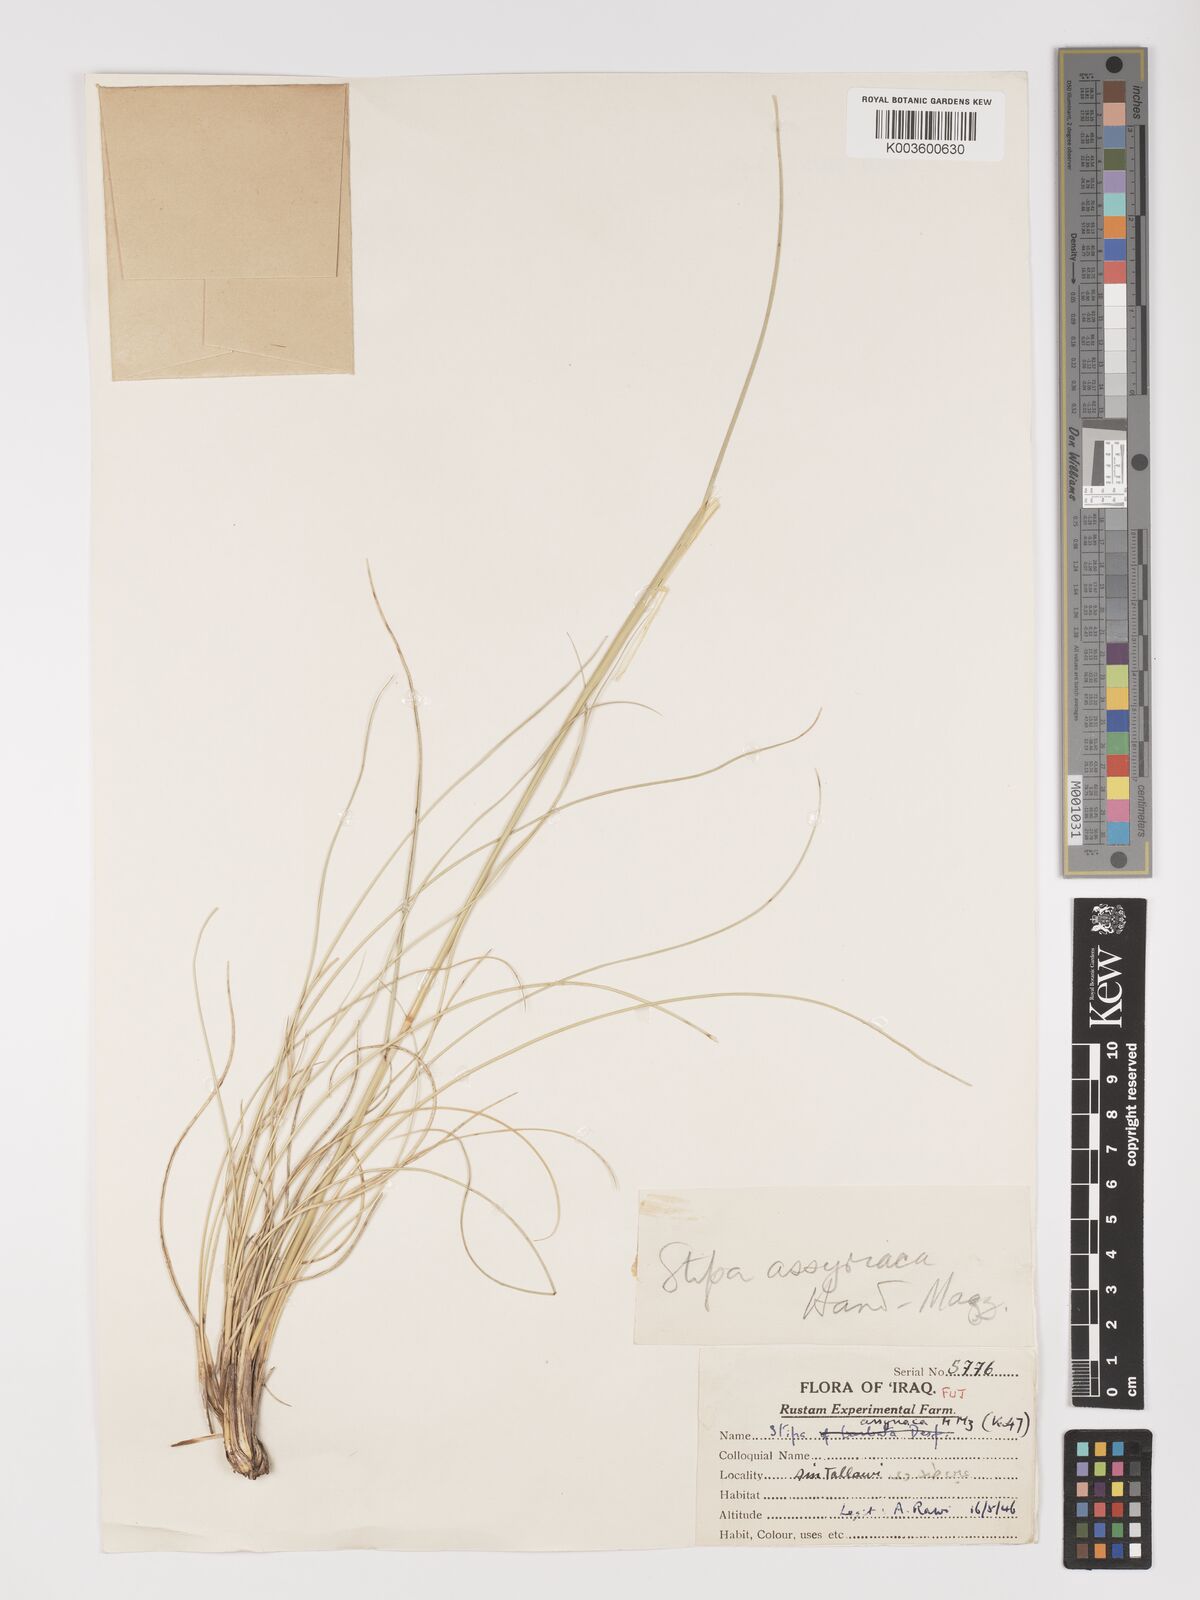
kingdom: Plantae
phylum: Tracheophyta
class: Liliopsida
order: Poales
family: Poaceae
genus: Stipa
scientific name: Stipa hohenackeriana
